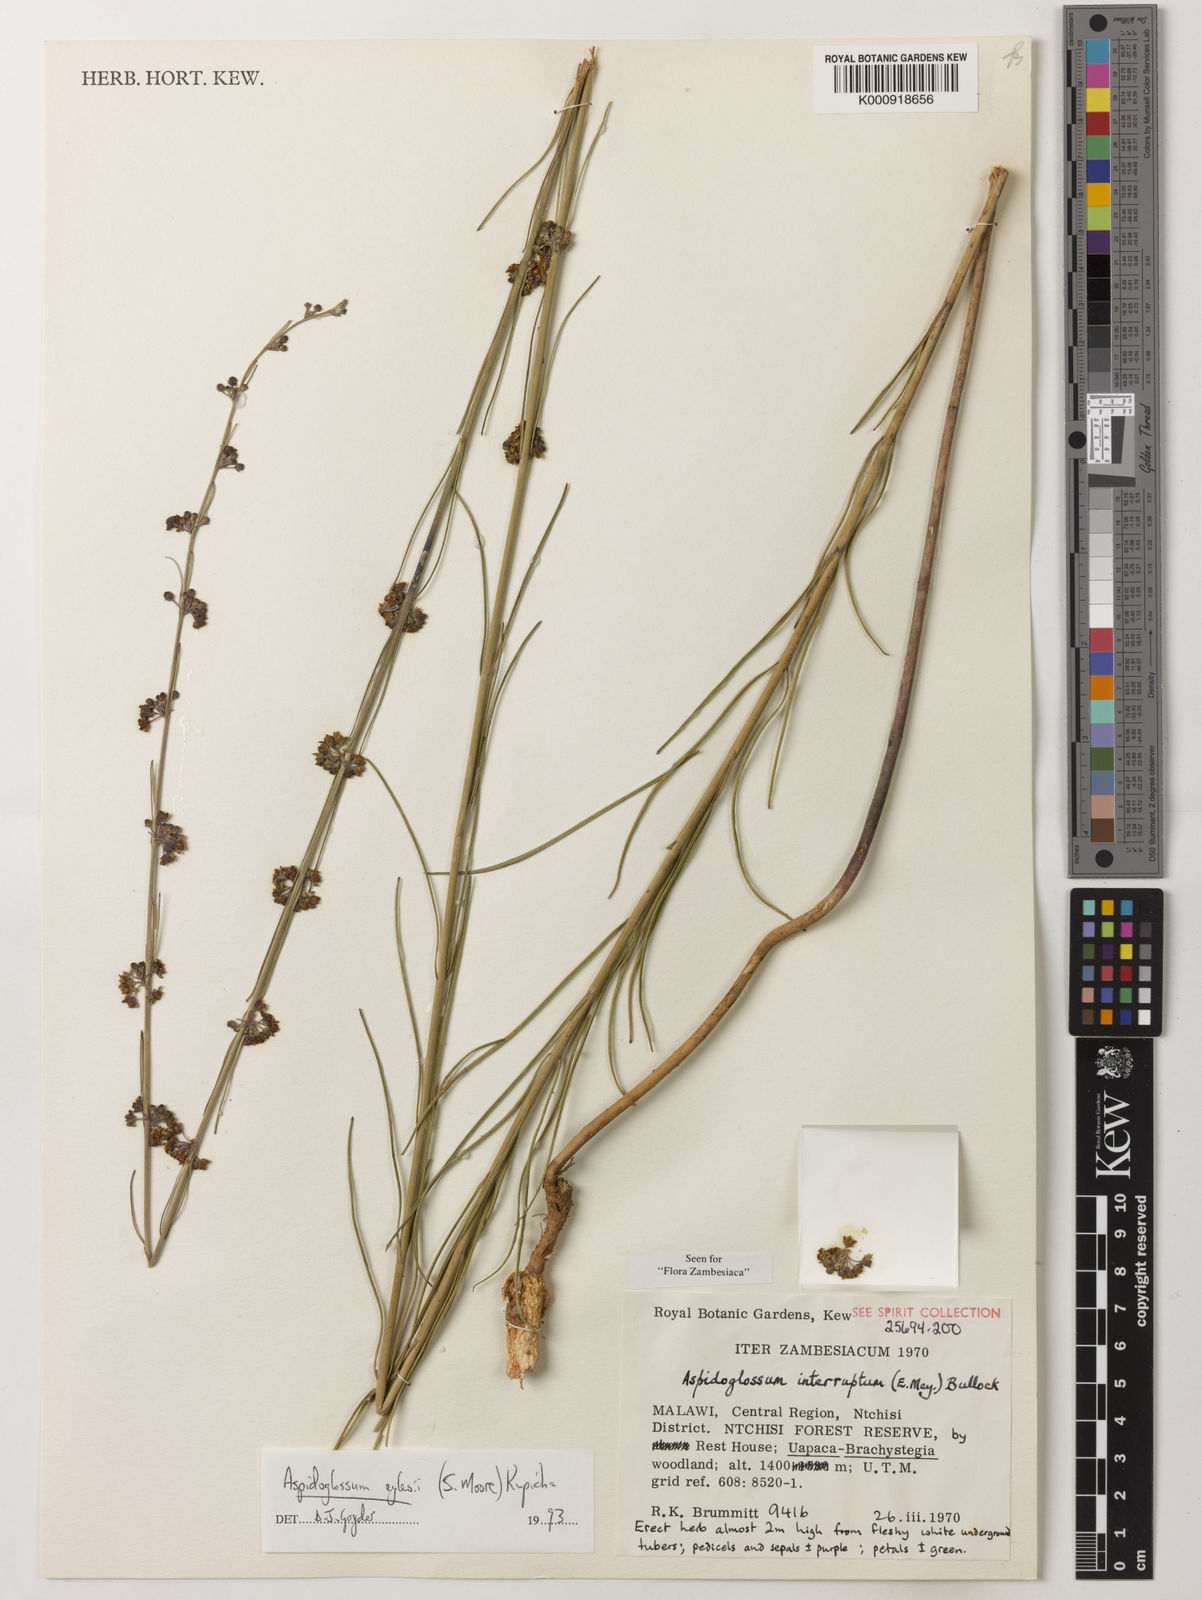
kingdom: Plantae
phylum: Tracheophyta
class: Magnoliopsida
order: Gentianales
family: Apocynaceae
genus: Aspidoglossum
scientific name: Aspidoglossum eylesii
